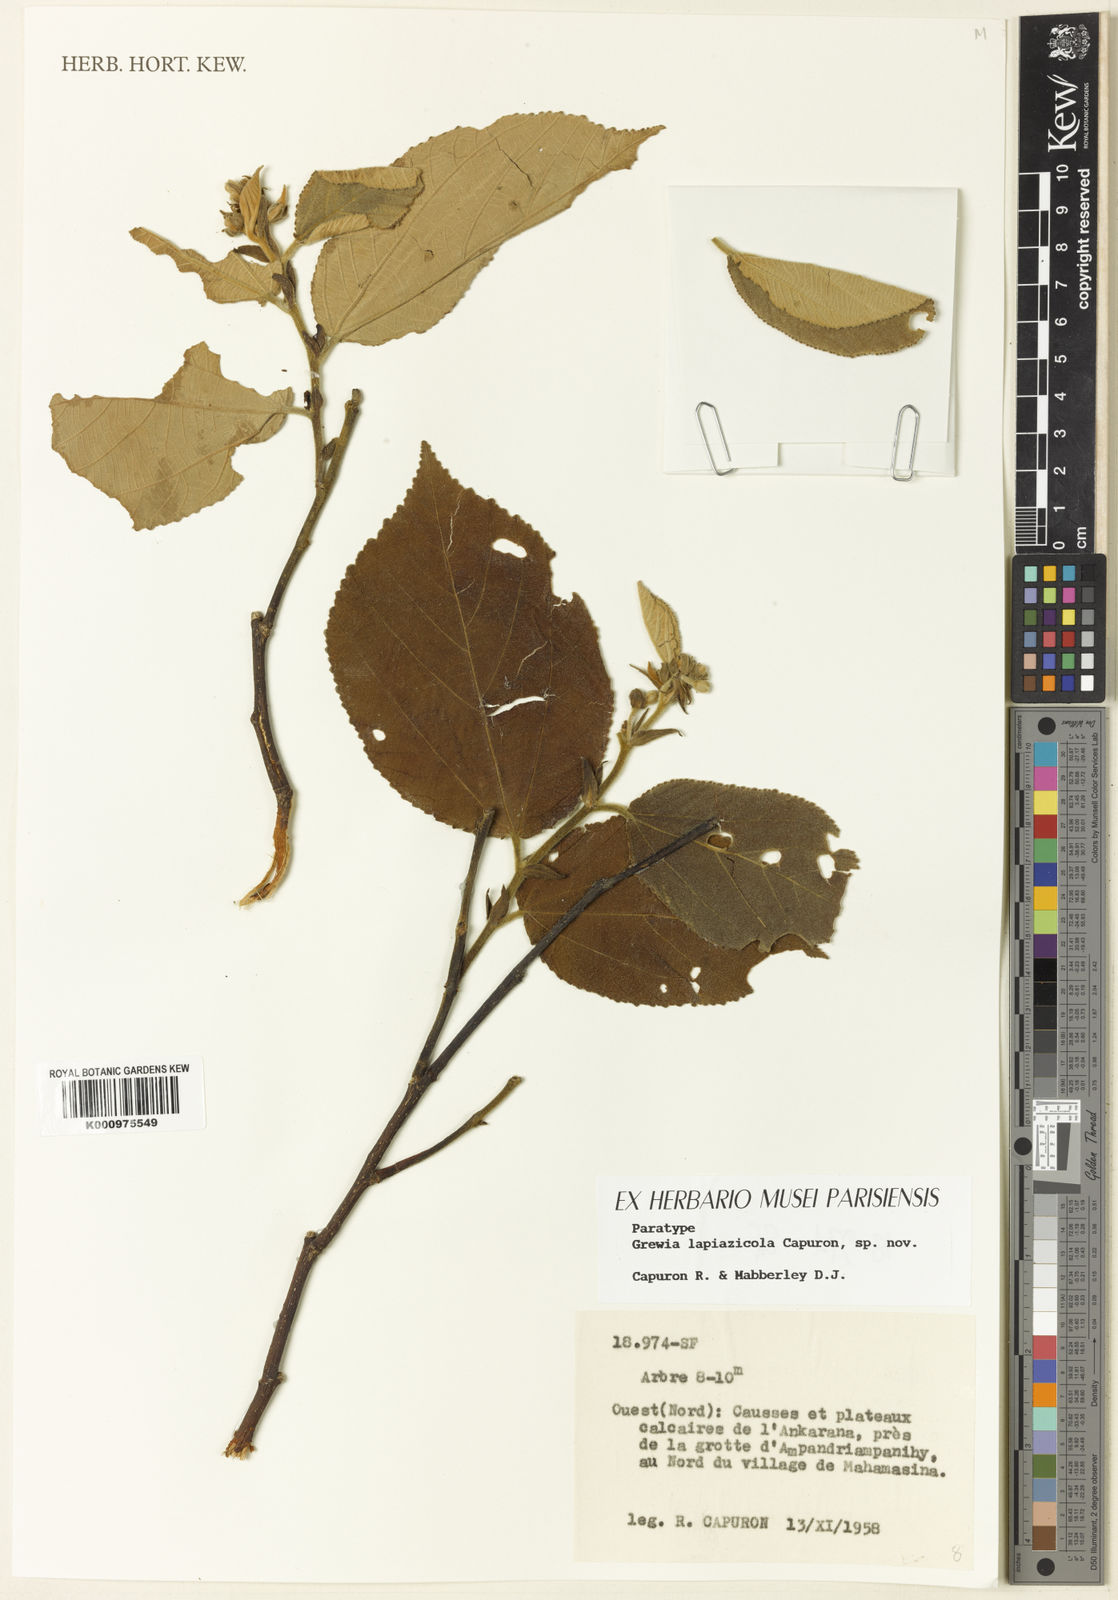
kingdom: Plantae
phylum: Tracheophyta
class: Magnoliopsida
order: Malvales
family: Malvaceae
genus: Grewia
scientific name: Grewia lapiazicola
